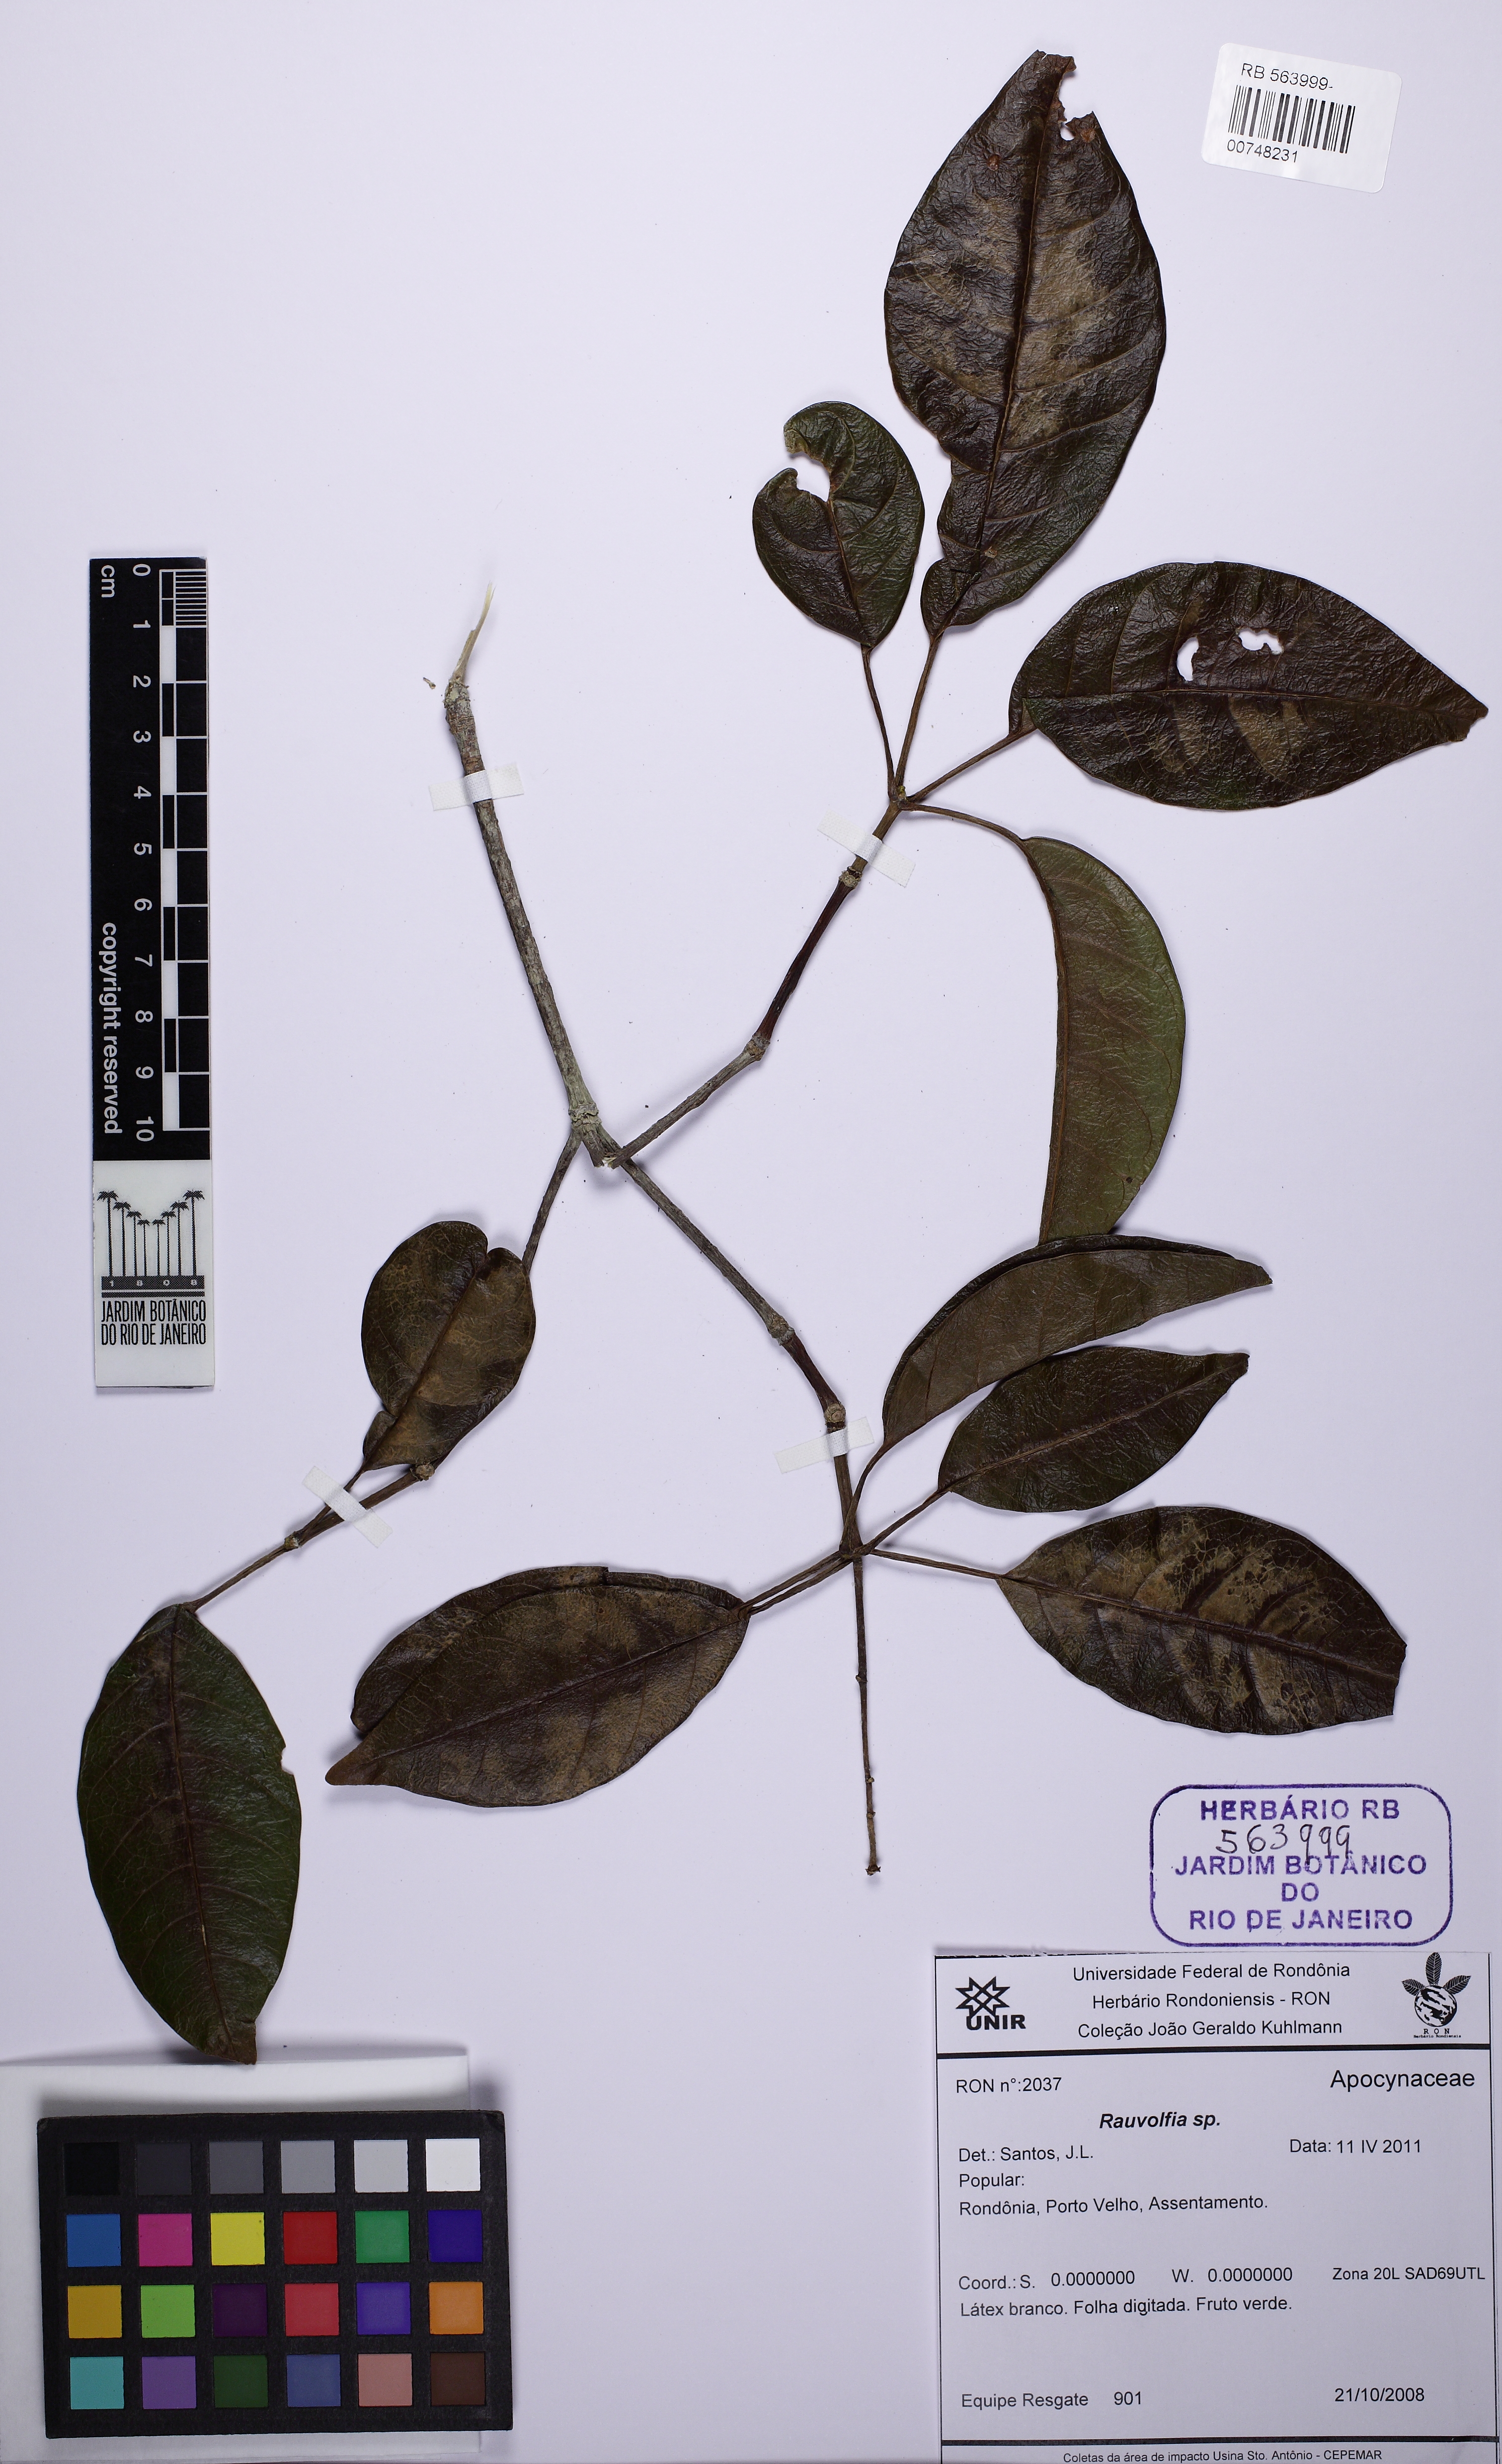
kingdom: Plantae
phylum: Tracheophyta
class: Magnoliopsida
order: Gentianales
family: Apocynaceae
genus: Rauvolfia
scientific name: Rauvolfia
